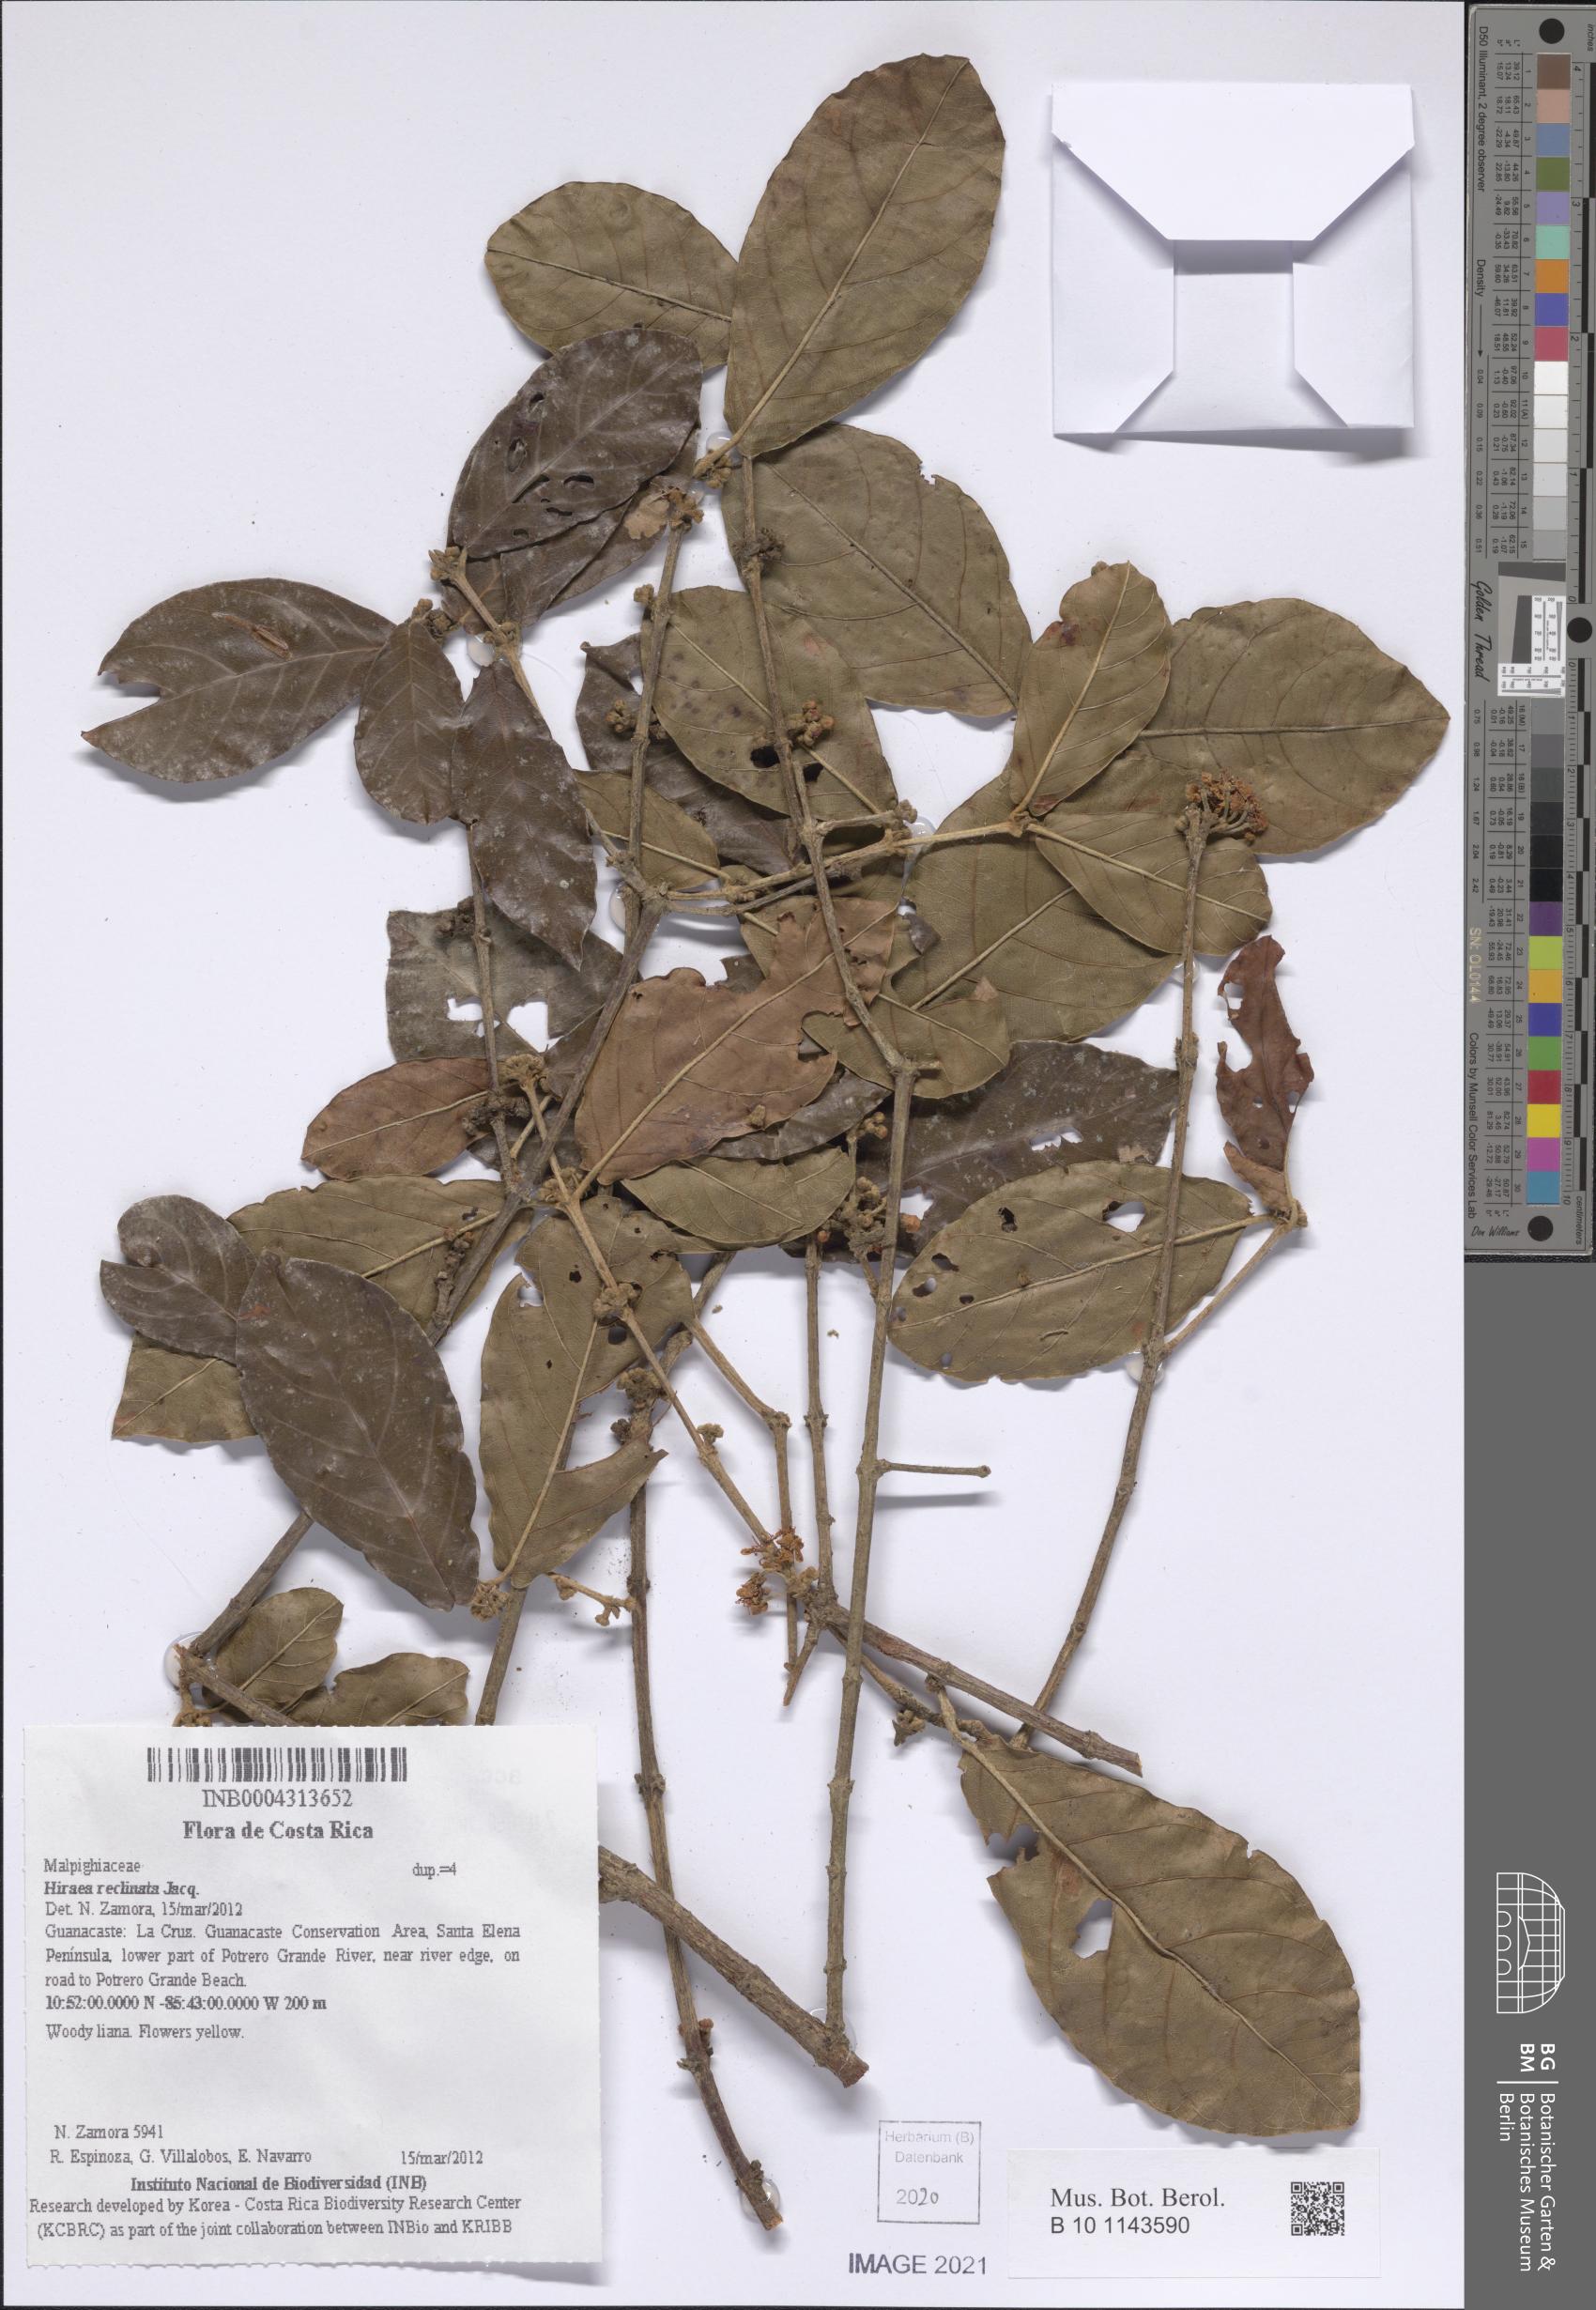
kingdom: Plantae
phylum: Tracheophyta
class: Magnoliopsida
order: Malpighiales
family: Malpighiaceae
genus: Hiraea
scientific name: Hiraea reclinata
